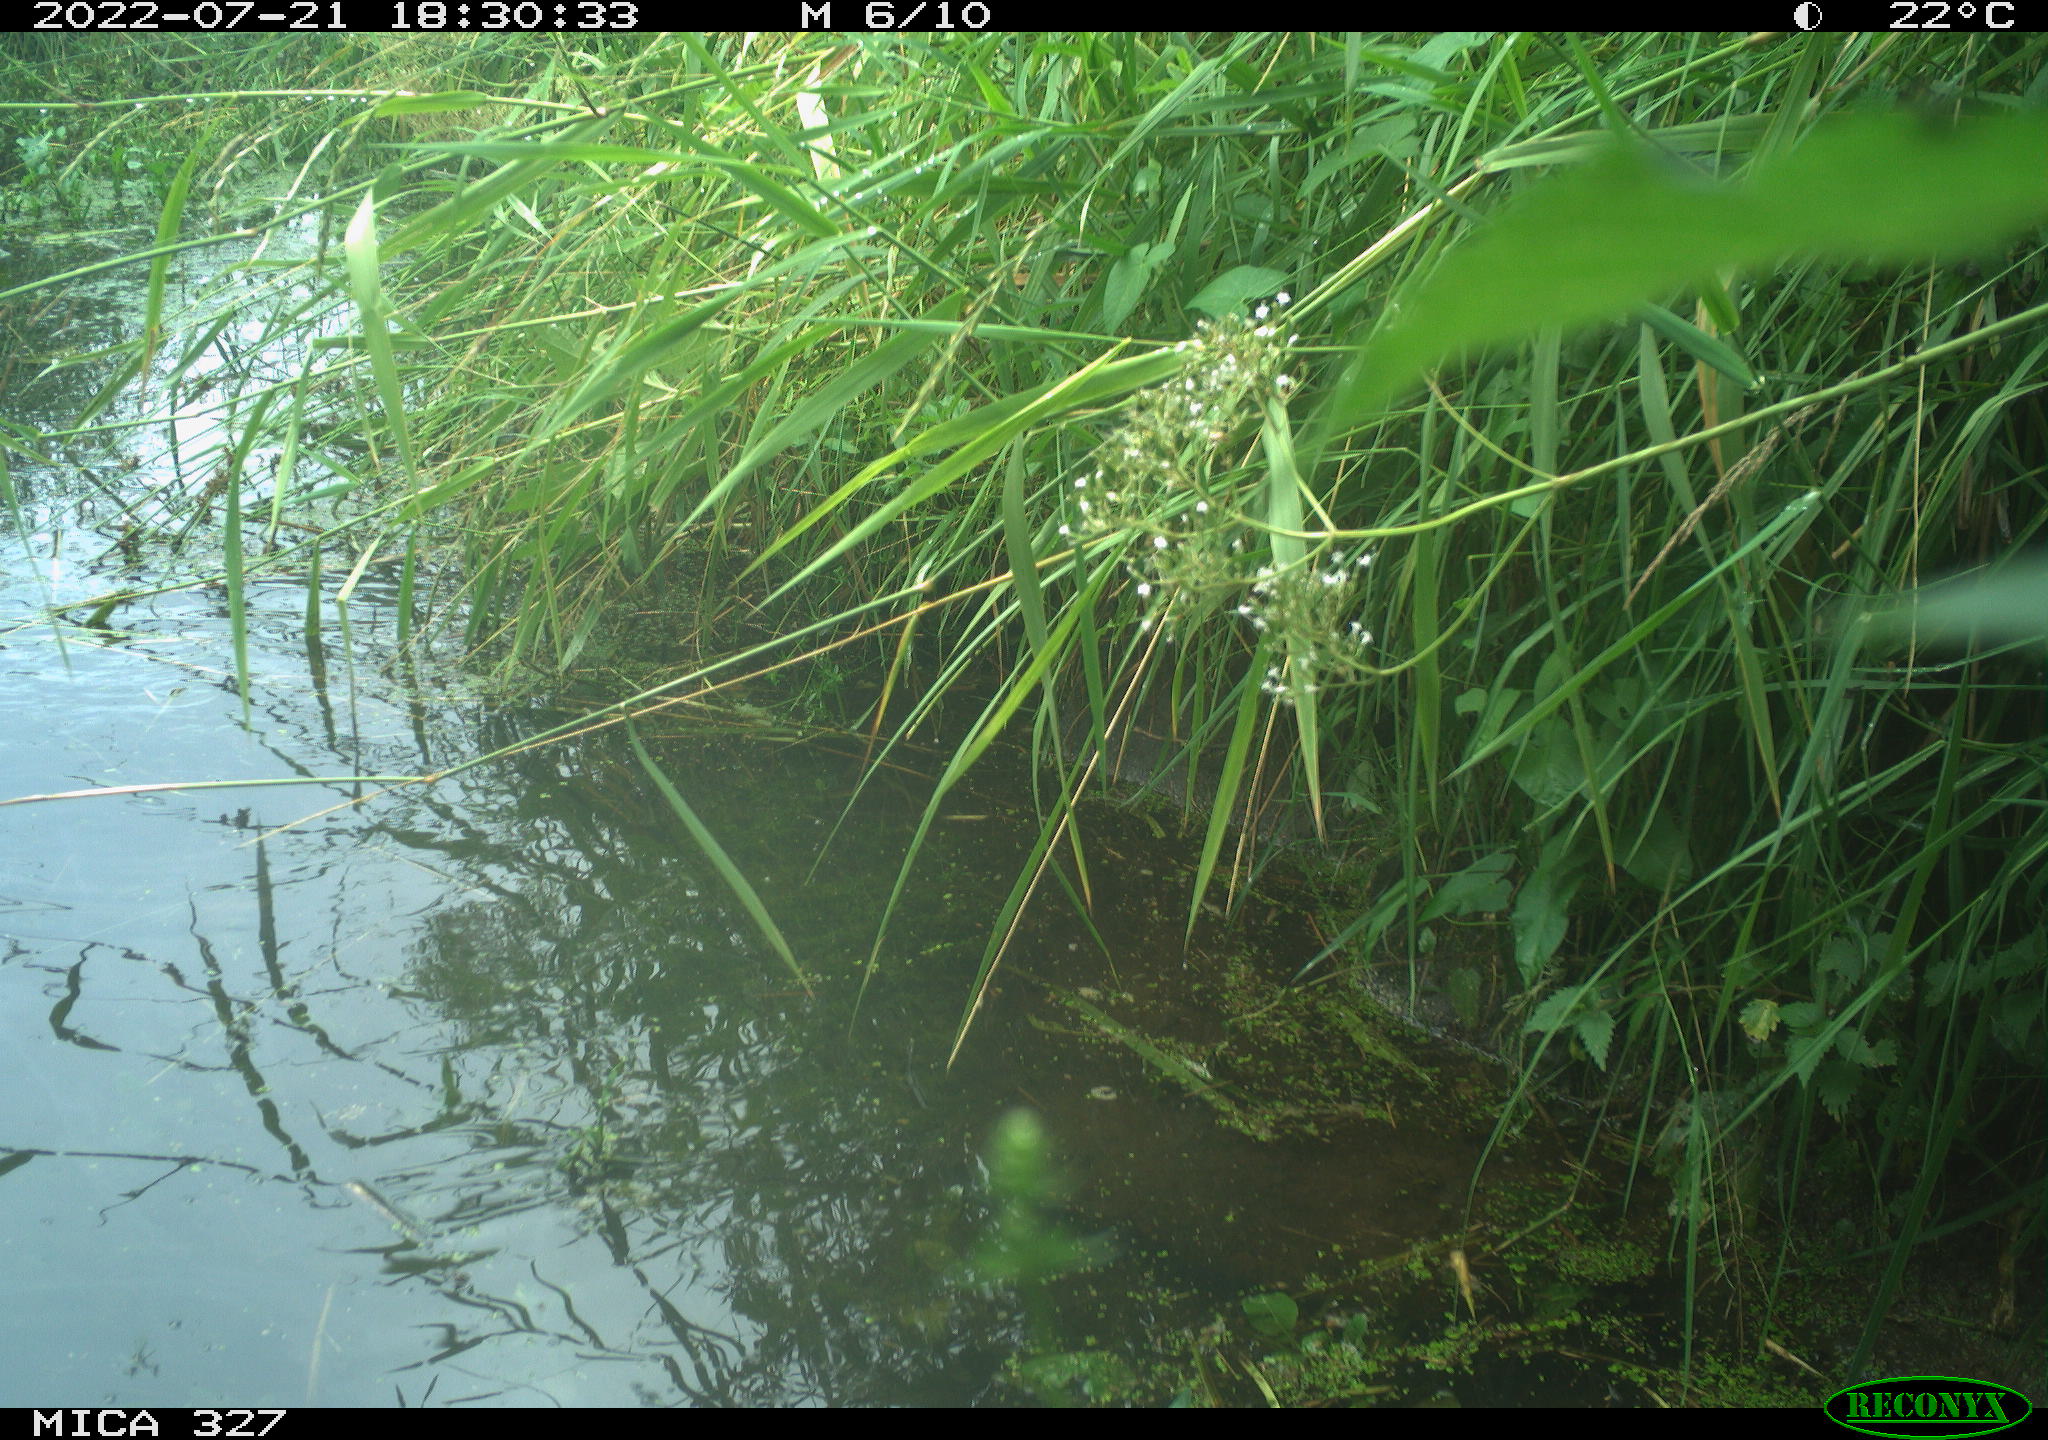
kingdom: Animalia
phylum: Chordata
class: Aves
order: Anseriformes
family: Anatidae
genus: Anas
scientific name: Anas
